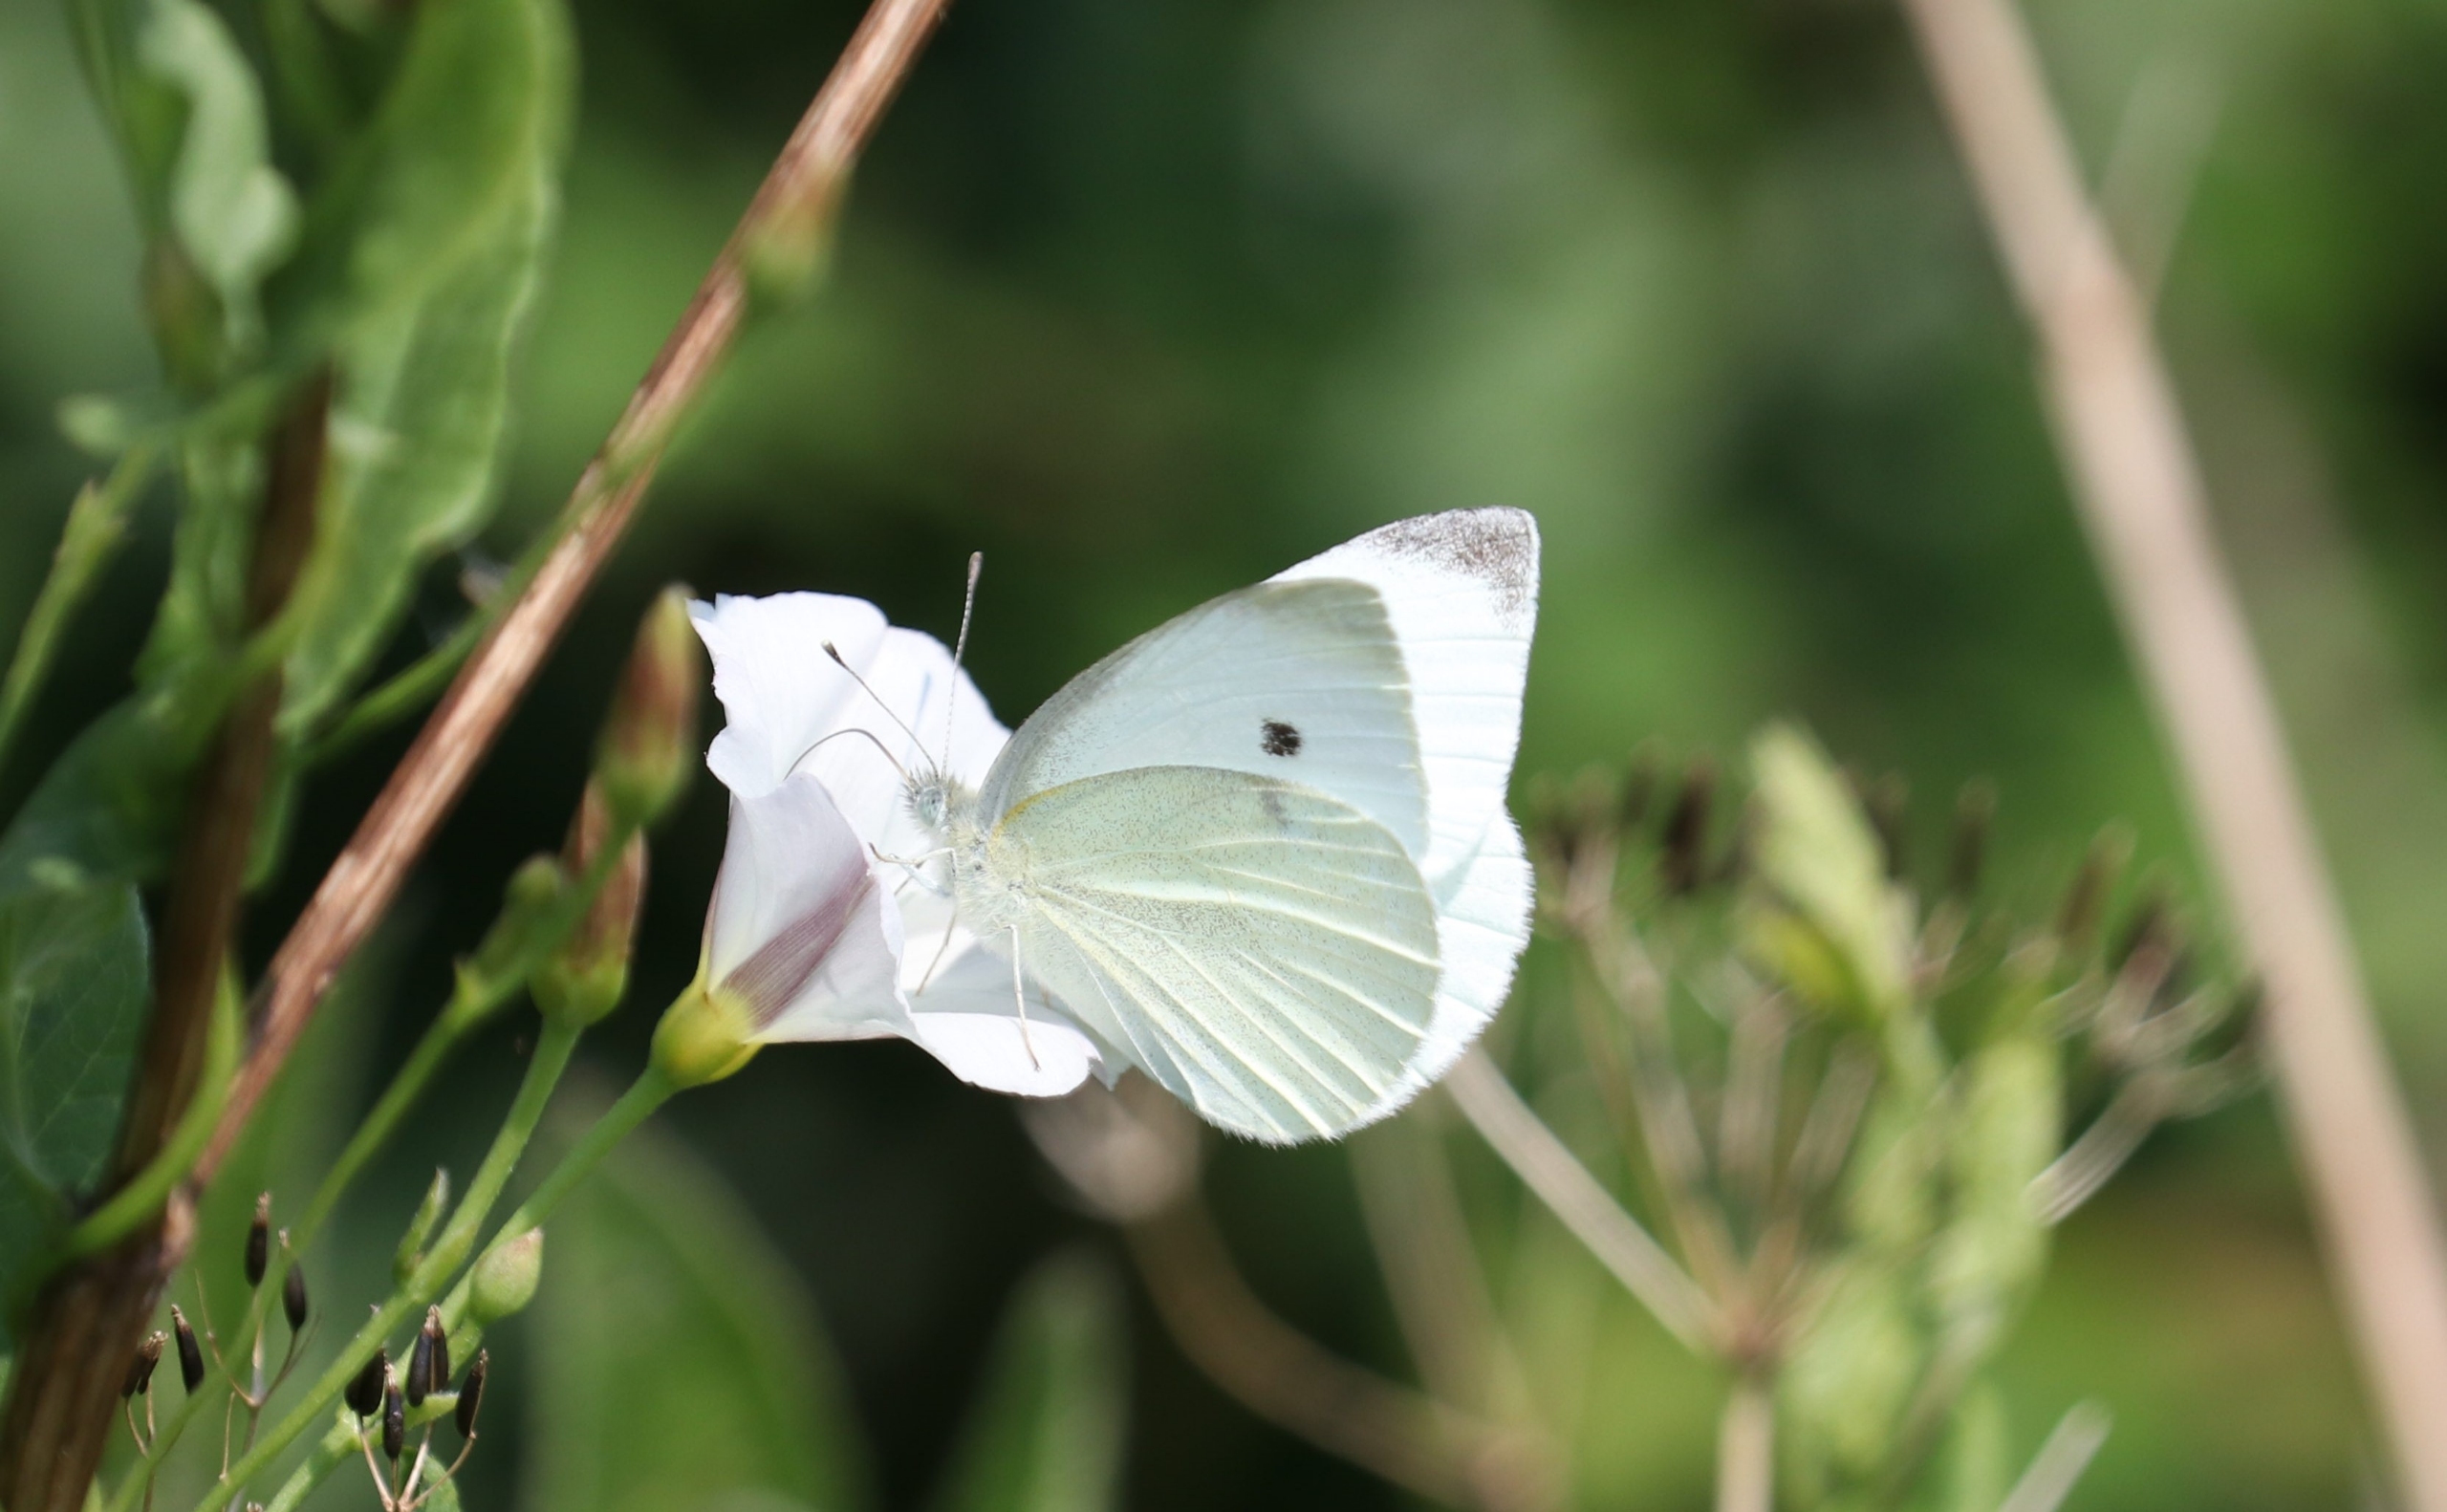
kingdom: Animalia
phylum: Arthropoda
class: Insecta
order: Lepidoptera
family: Pieridae
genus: Pieris
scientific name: Pieris rapae
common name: Lille kålsommerfugl
